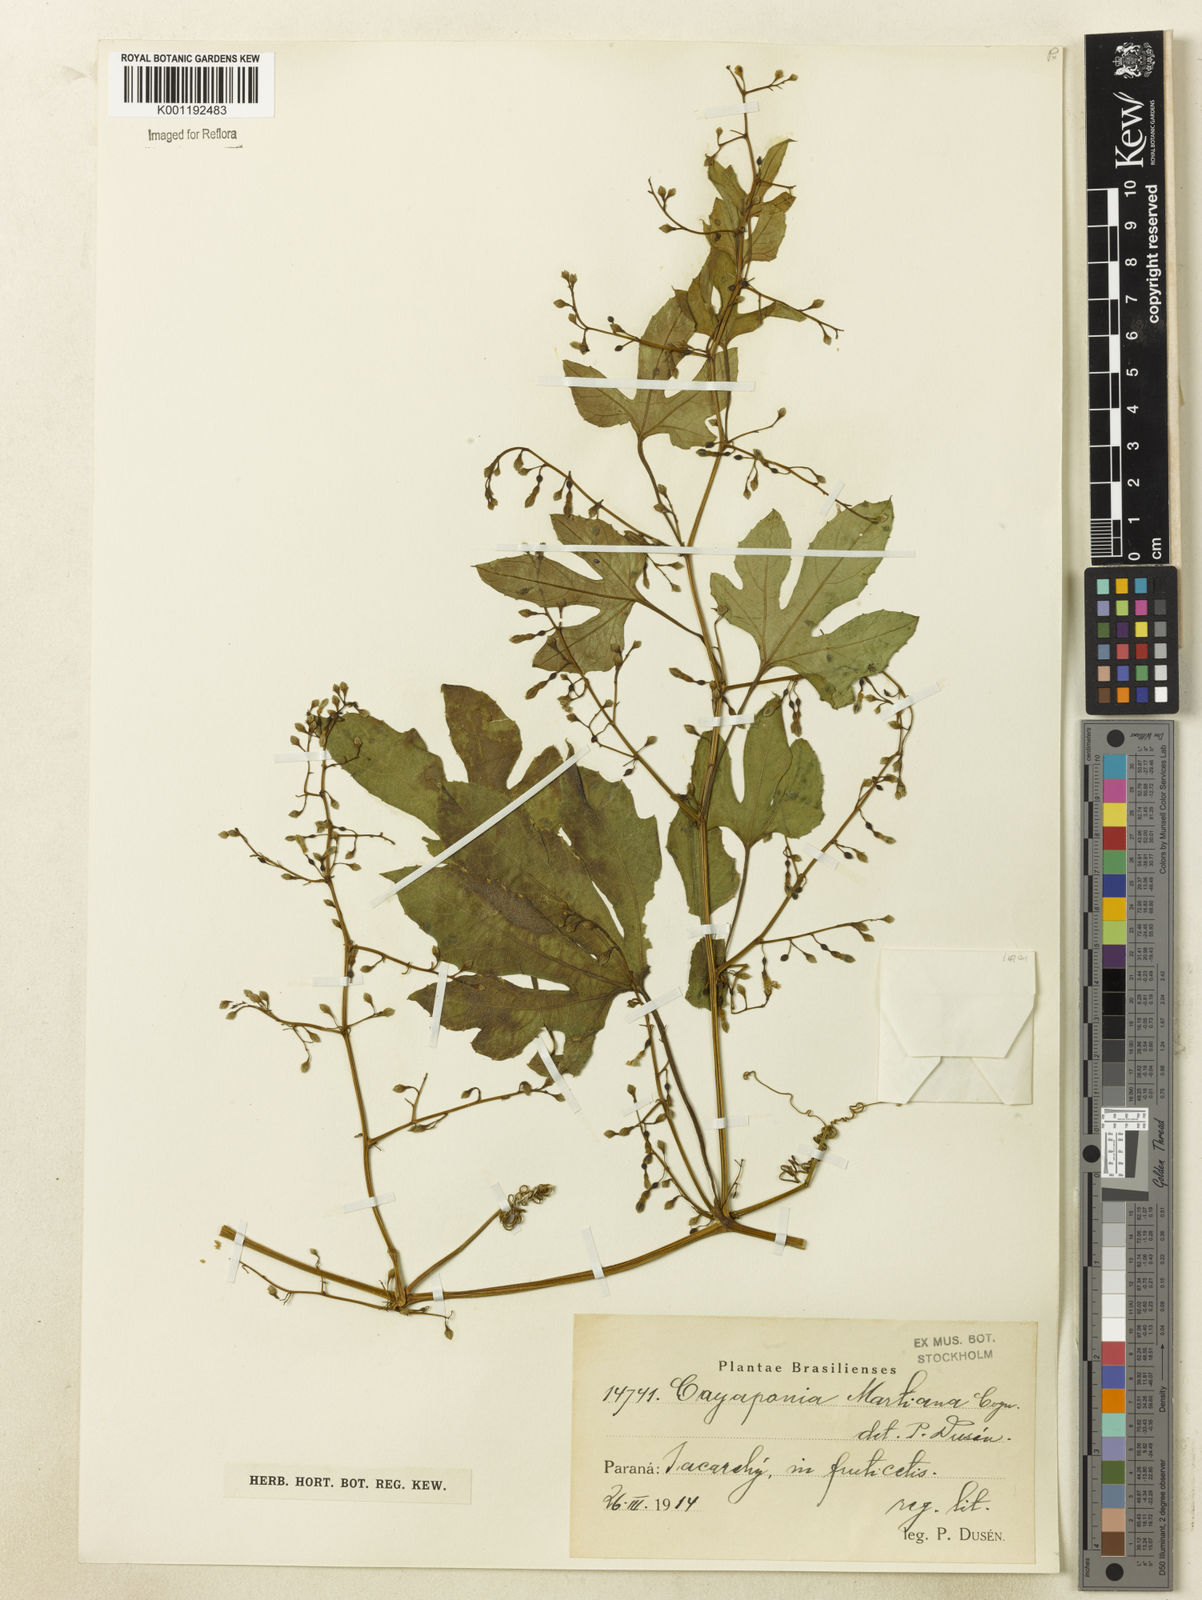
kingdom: Plantae
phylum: Tracheophyta
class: Magnoliopsida
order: Cucurbitales
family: Cucurbitaceae
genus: Cayaponia
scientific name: Cayaponia martiana
